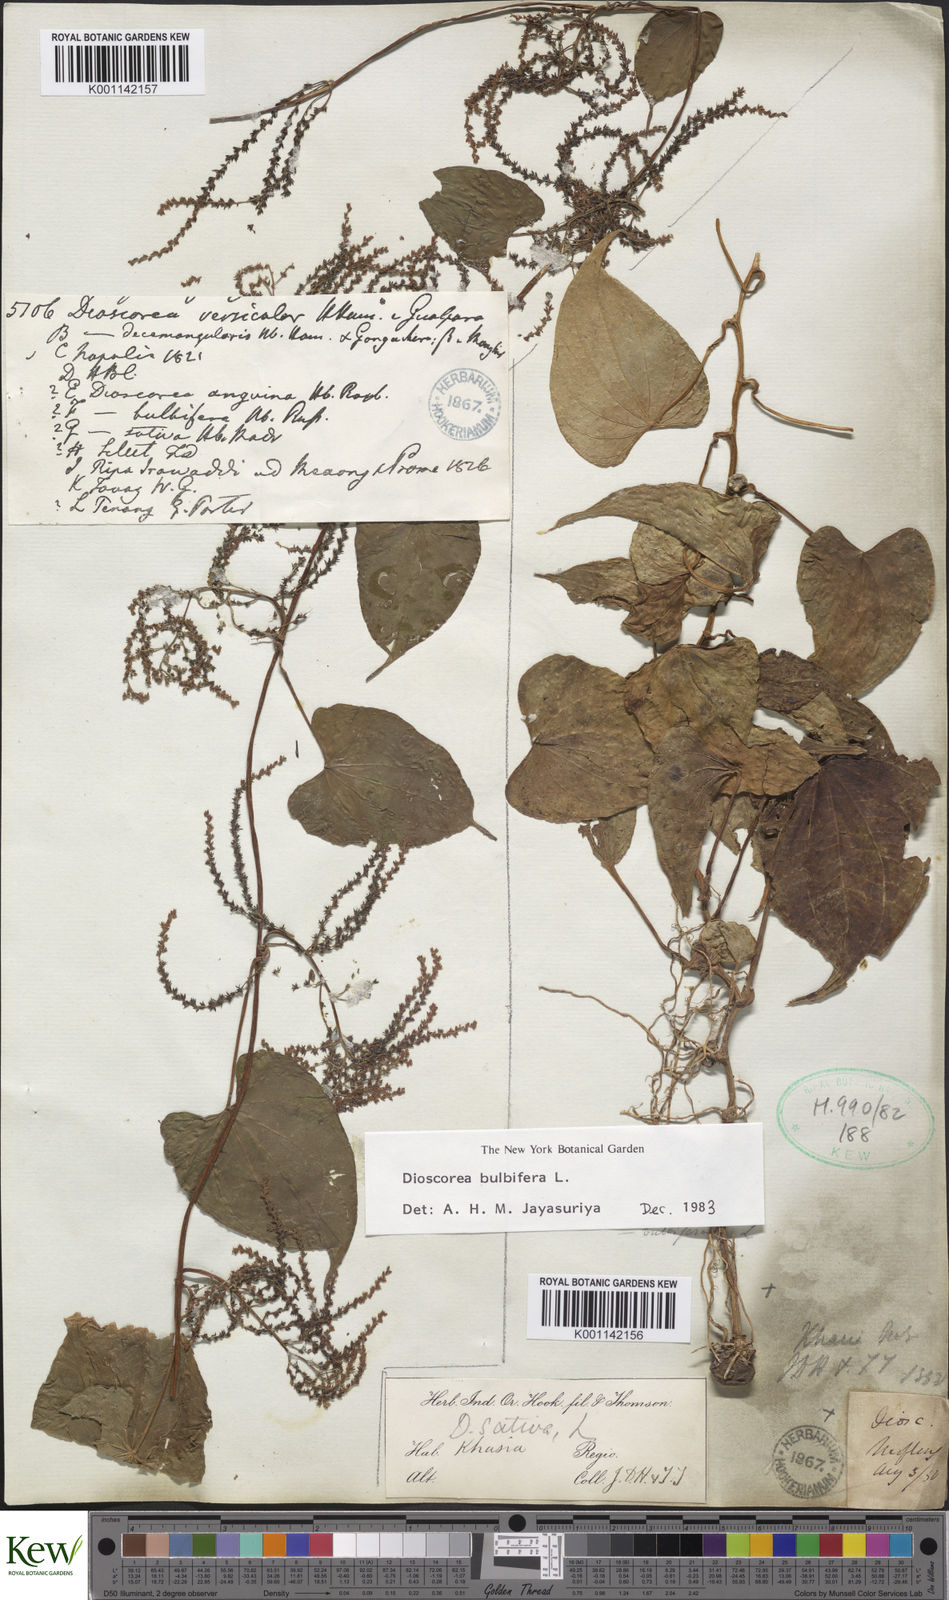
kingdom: Plantae
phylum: Tracheophyta
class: Liliopsida
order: Dioscoreales
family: Dioscoreaceae
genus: Dioscorea
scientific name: Dioscorea bulbifera
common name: Air yam
